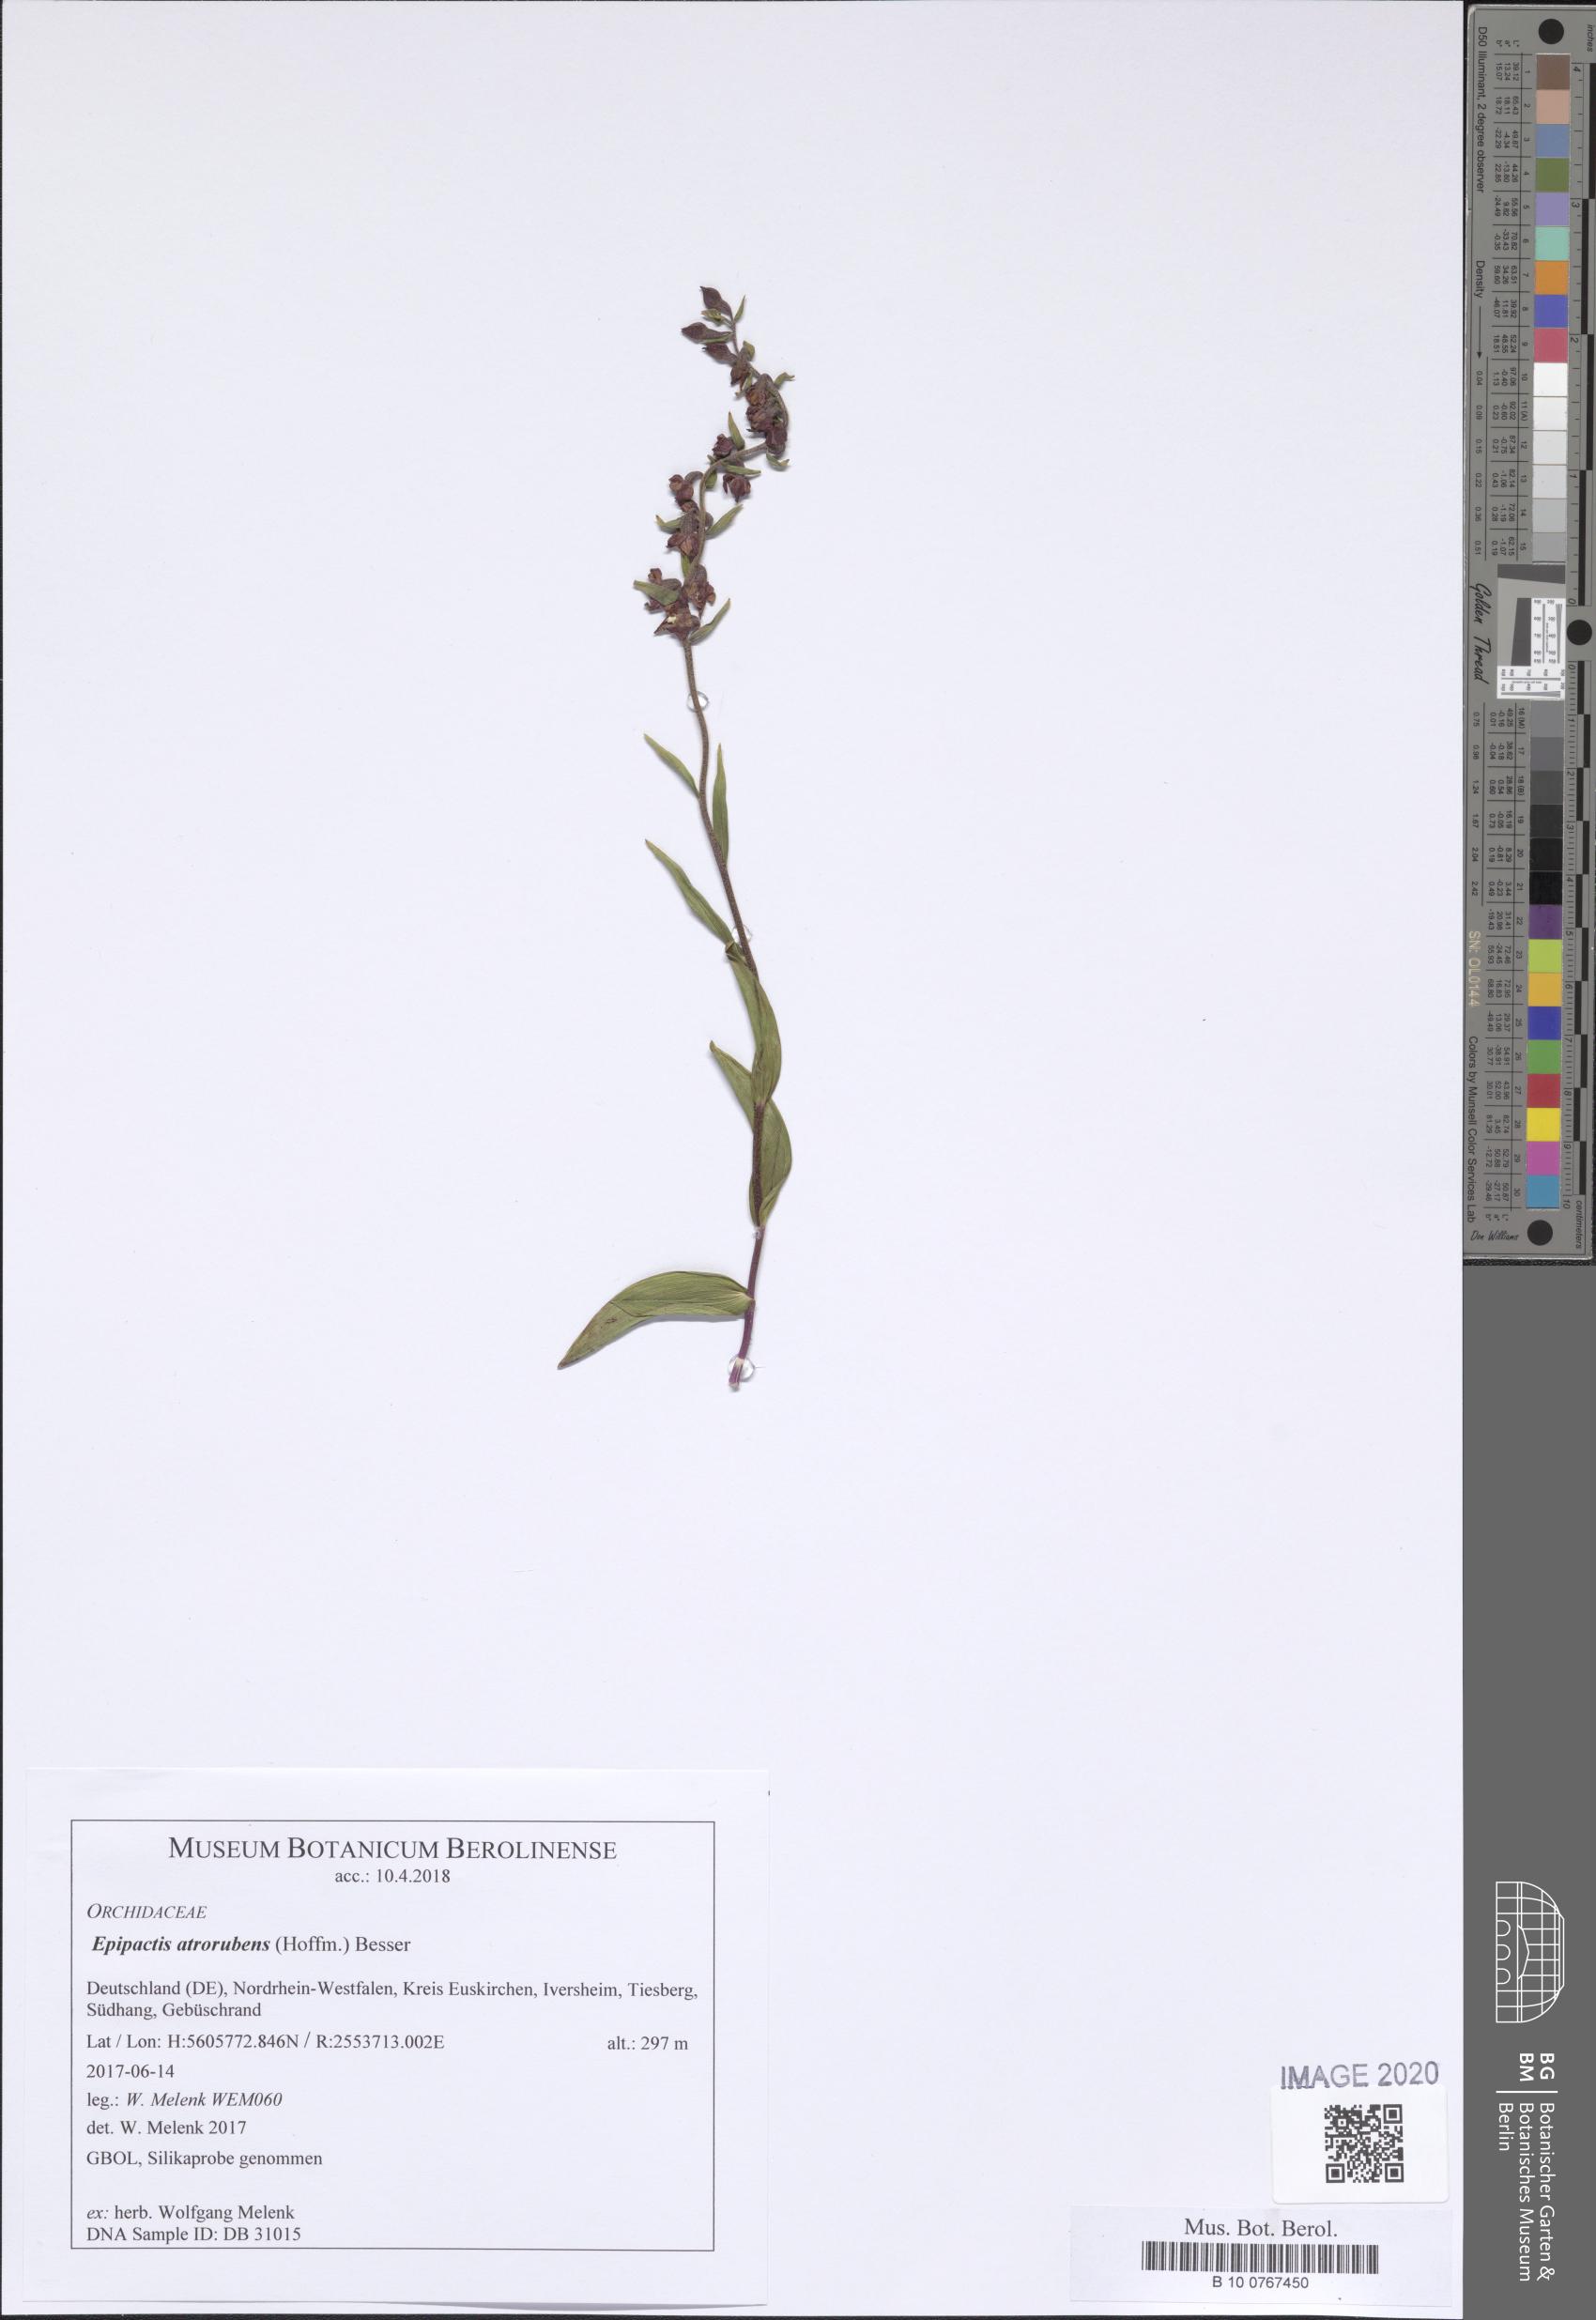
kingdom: Plantae
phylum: Tracheophyta
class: Liliopsida
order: Asparagales
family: Orchidaceae
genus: Epipactis
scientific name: Epipactis atrorubens
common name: Dark-red helleborine
